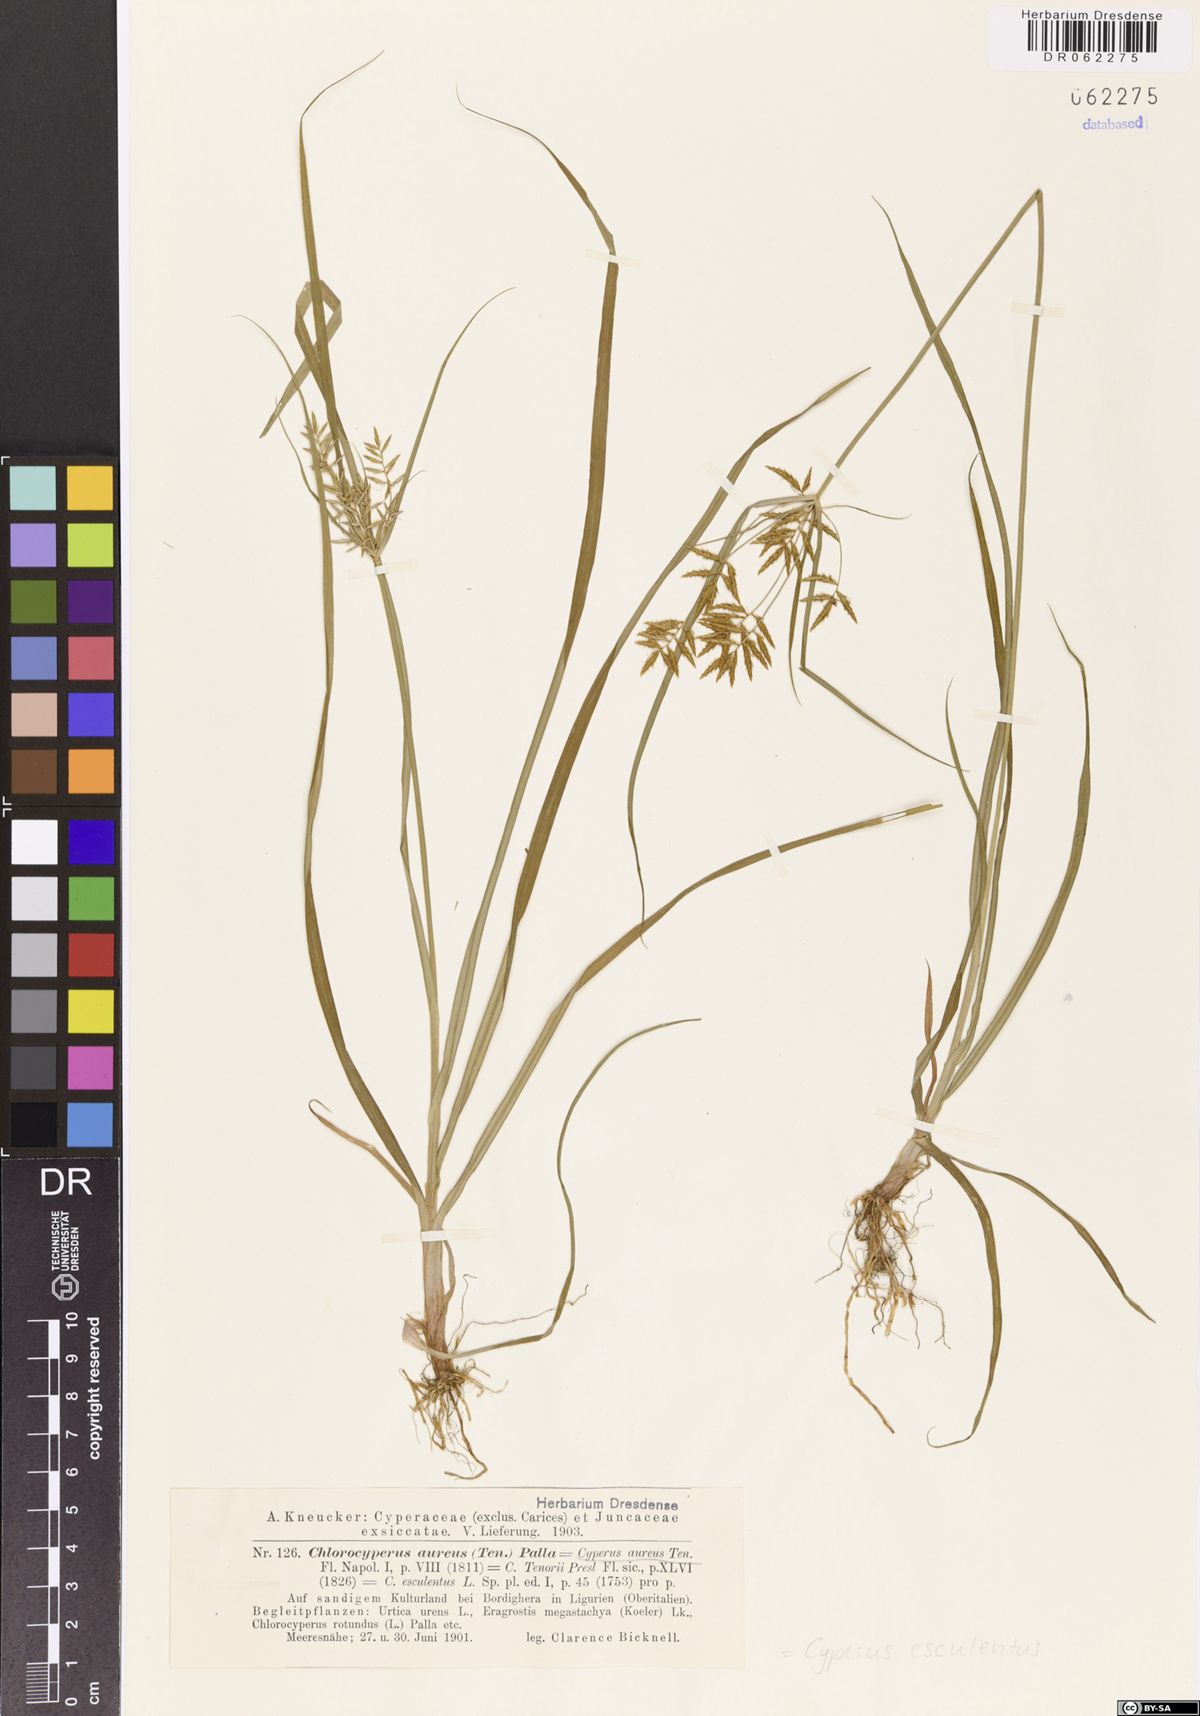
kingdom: Plantae
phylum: Tracheophyta
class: Liliopsida
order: Poales
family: Cyperaceae
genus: Cyperus
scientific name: Cyperus esculentus
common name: Yellow nutsedge
